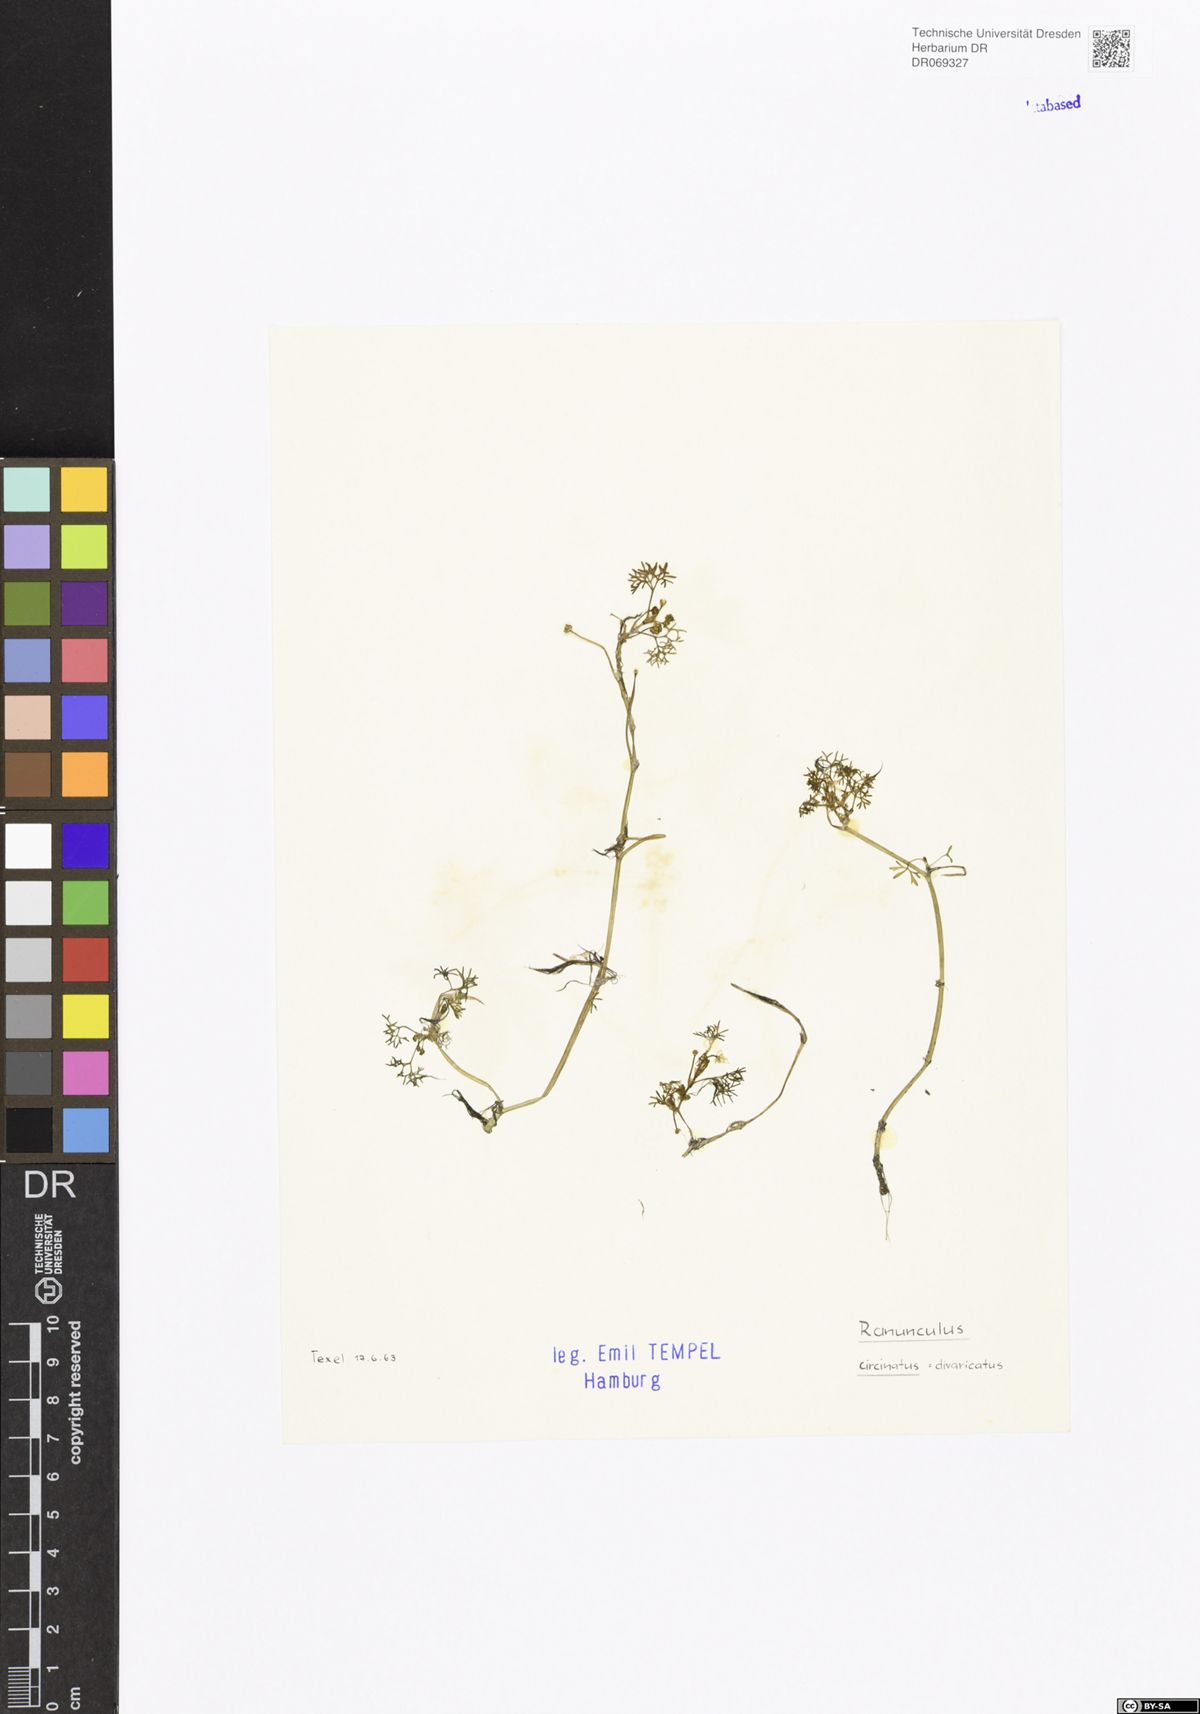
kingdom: Plantae
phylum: Tracheophyta
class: Magnoliopsida
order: Ranunculales
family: Ranunculaceae
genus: Ranunculus
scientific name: Ranunculus circinatus
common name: Fan-leaved water-crowfoot
